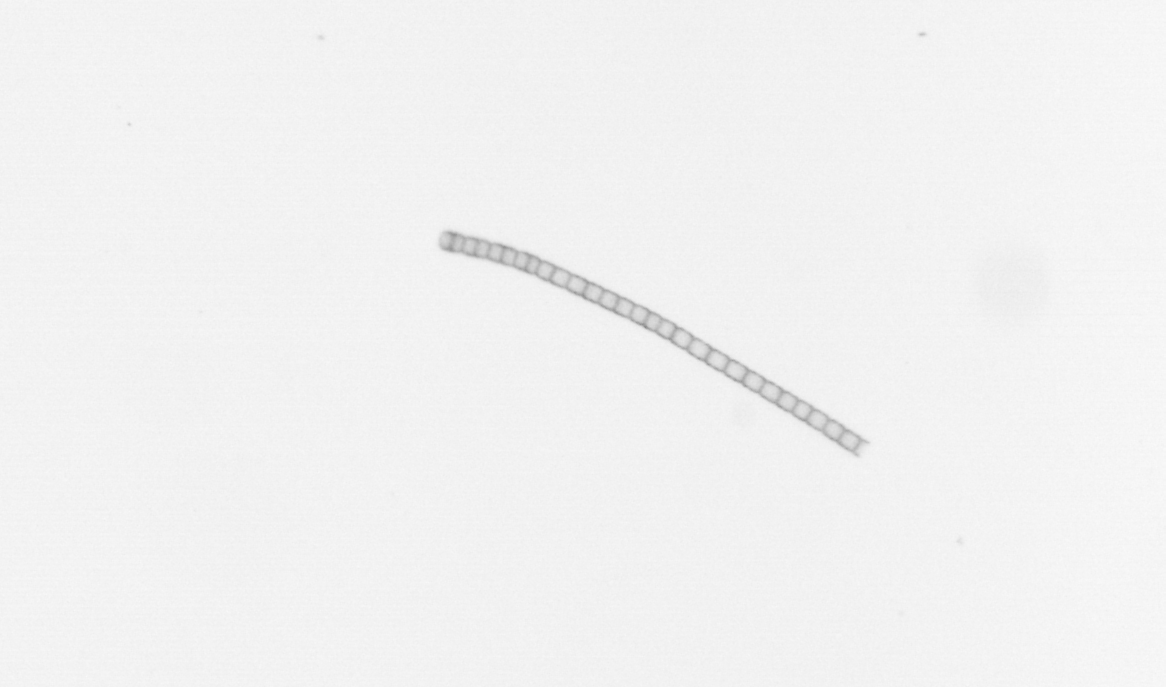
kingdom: Chromista
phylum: Ochrophyta
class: Bacillariophyceae
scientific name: Bacillariophyceae
